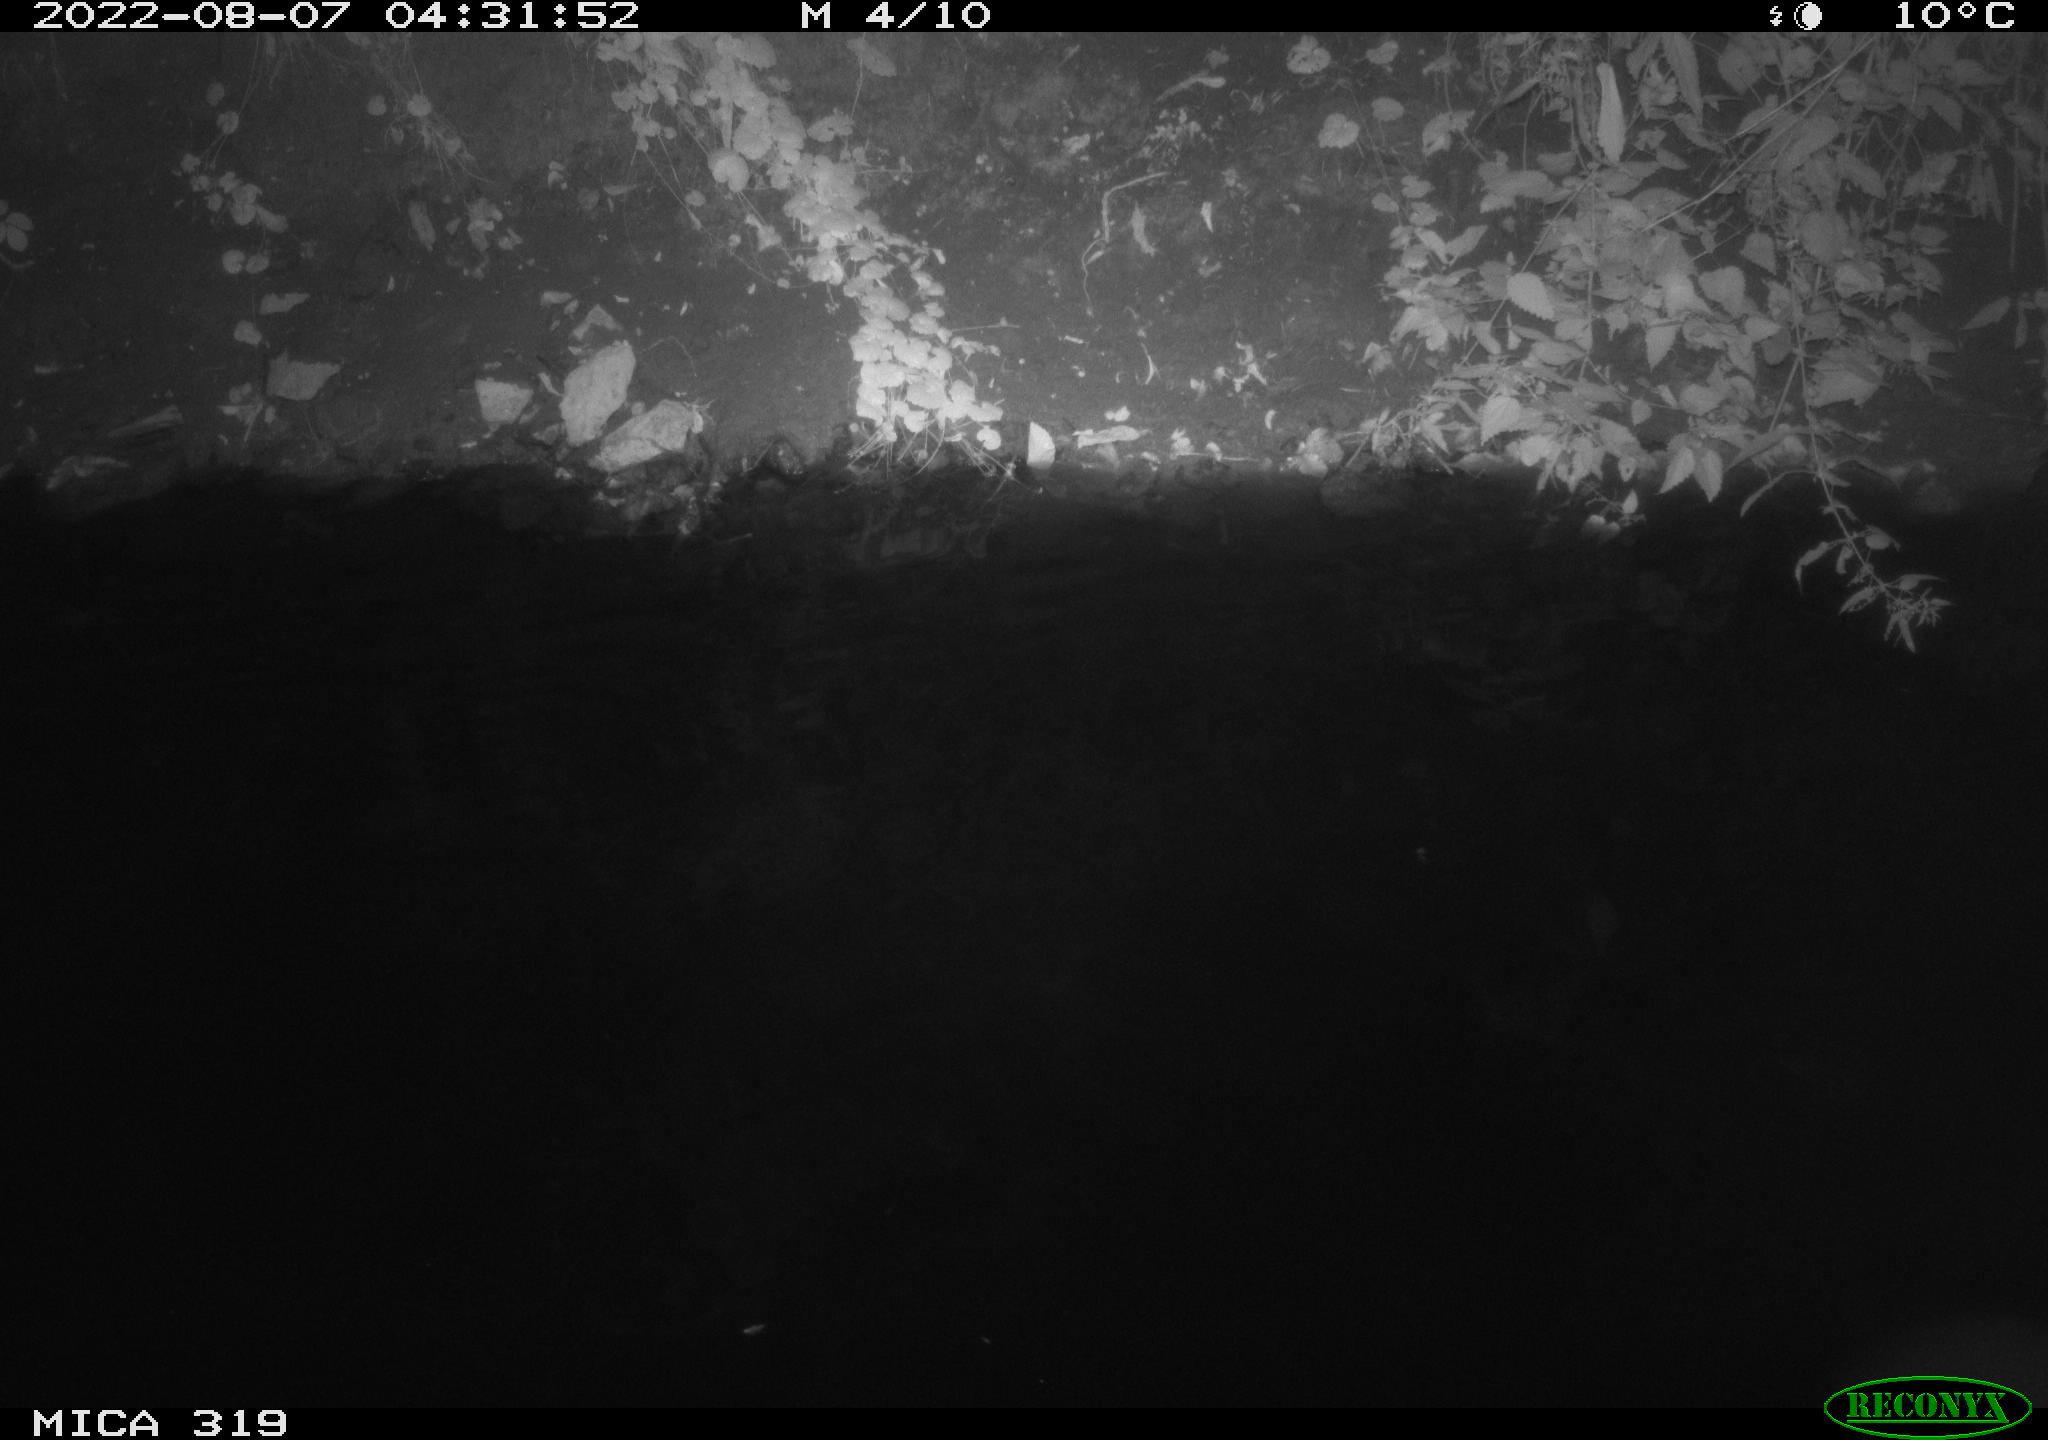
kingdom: Animalia
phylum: Chordata
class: Aves
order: Anseriformes
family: Anatidae
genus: Anas
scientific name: Anas
